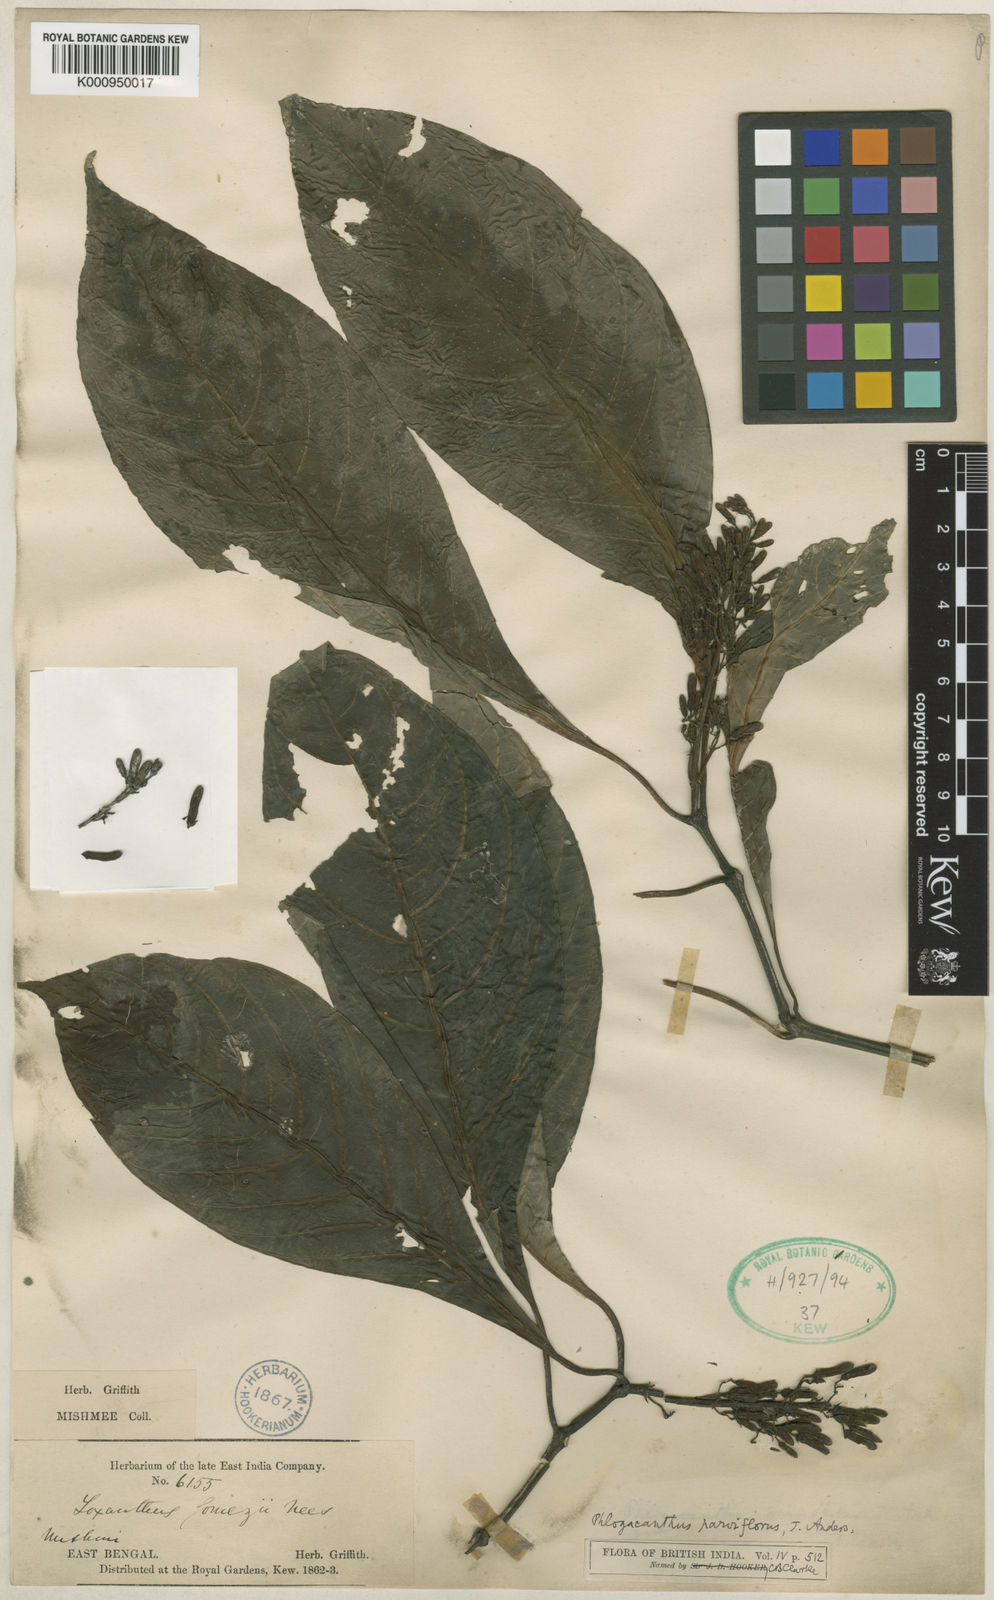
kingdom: Plantae
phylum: Tracheophyta
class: Magnoliopsida
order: Lamiales
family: Acanthaceae
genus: Phlogacanthus
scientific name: Phlogacanthus vitellinus
